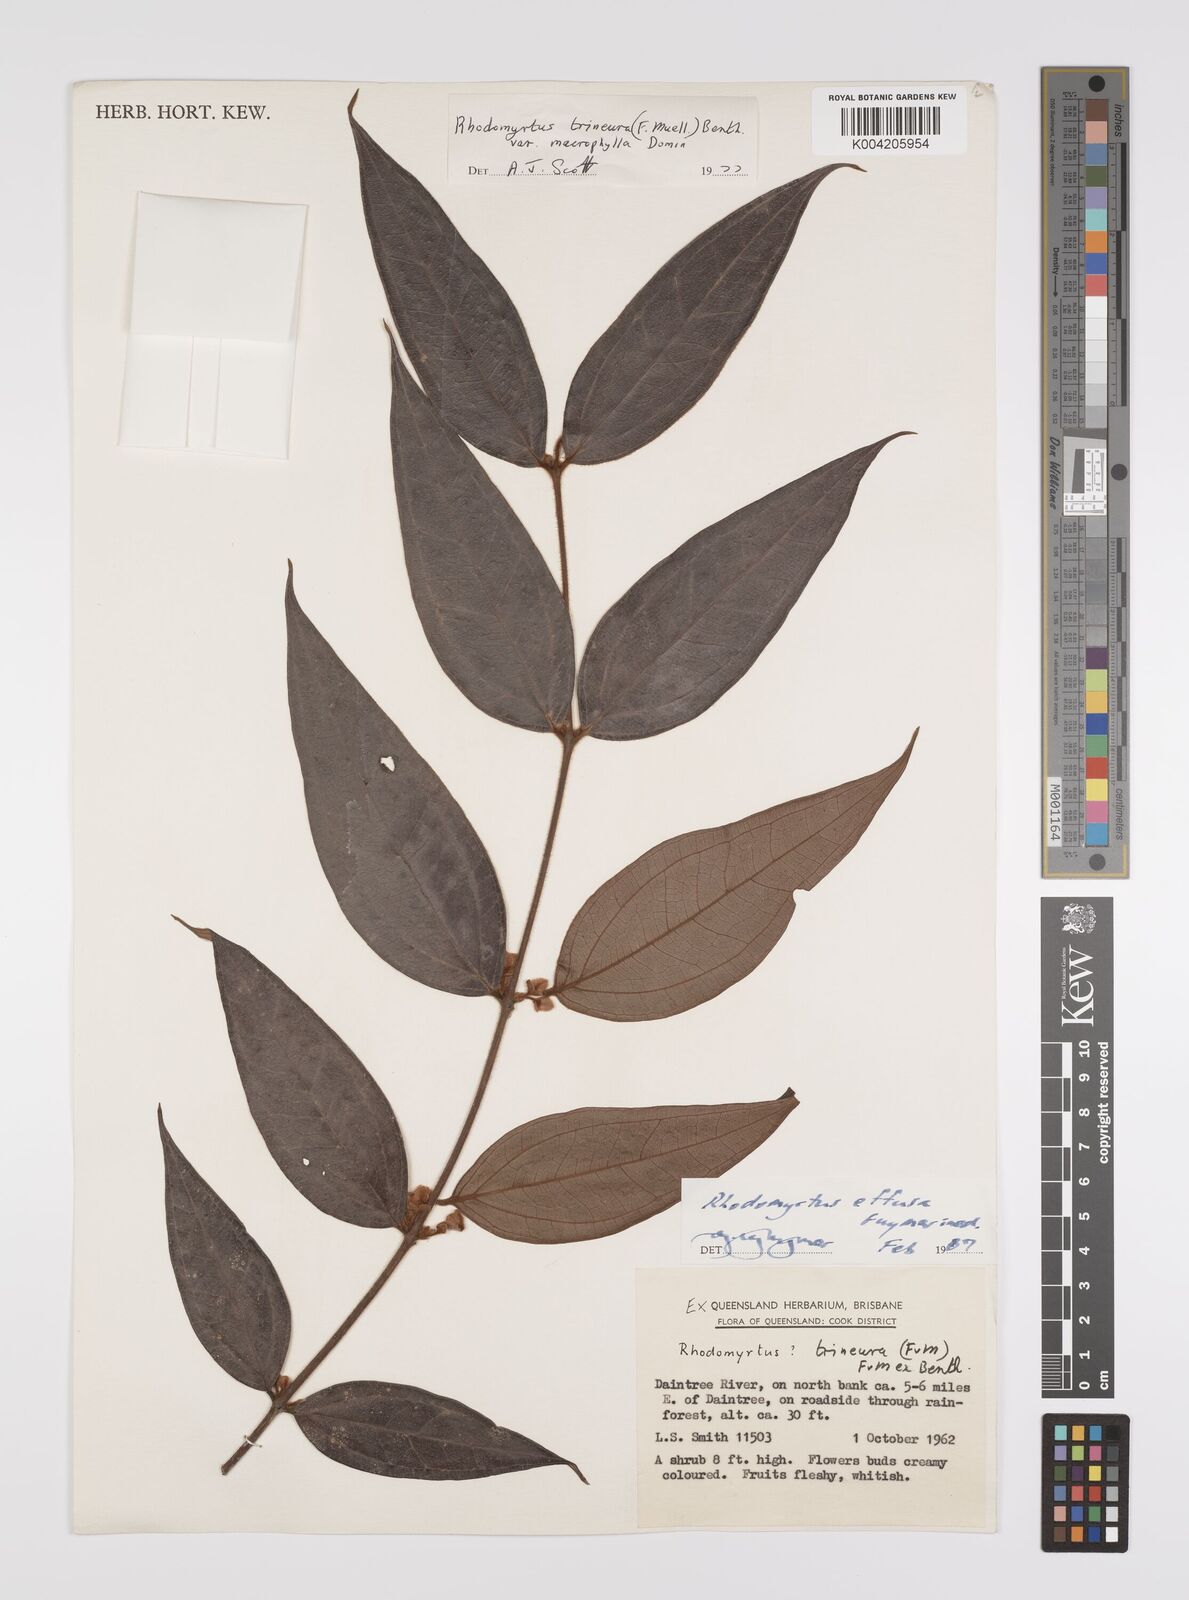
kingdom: Plantae
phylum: Tracheophyta
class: Magnoliopsida
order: Myrtales
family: Myrtaceae
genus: Rhodomyrtus
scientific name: Rhodomyrtus effusa
